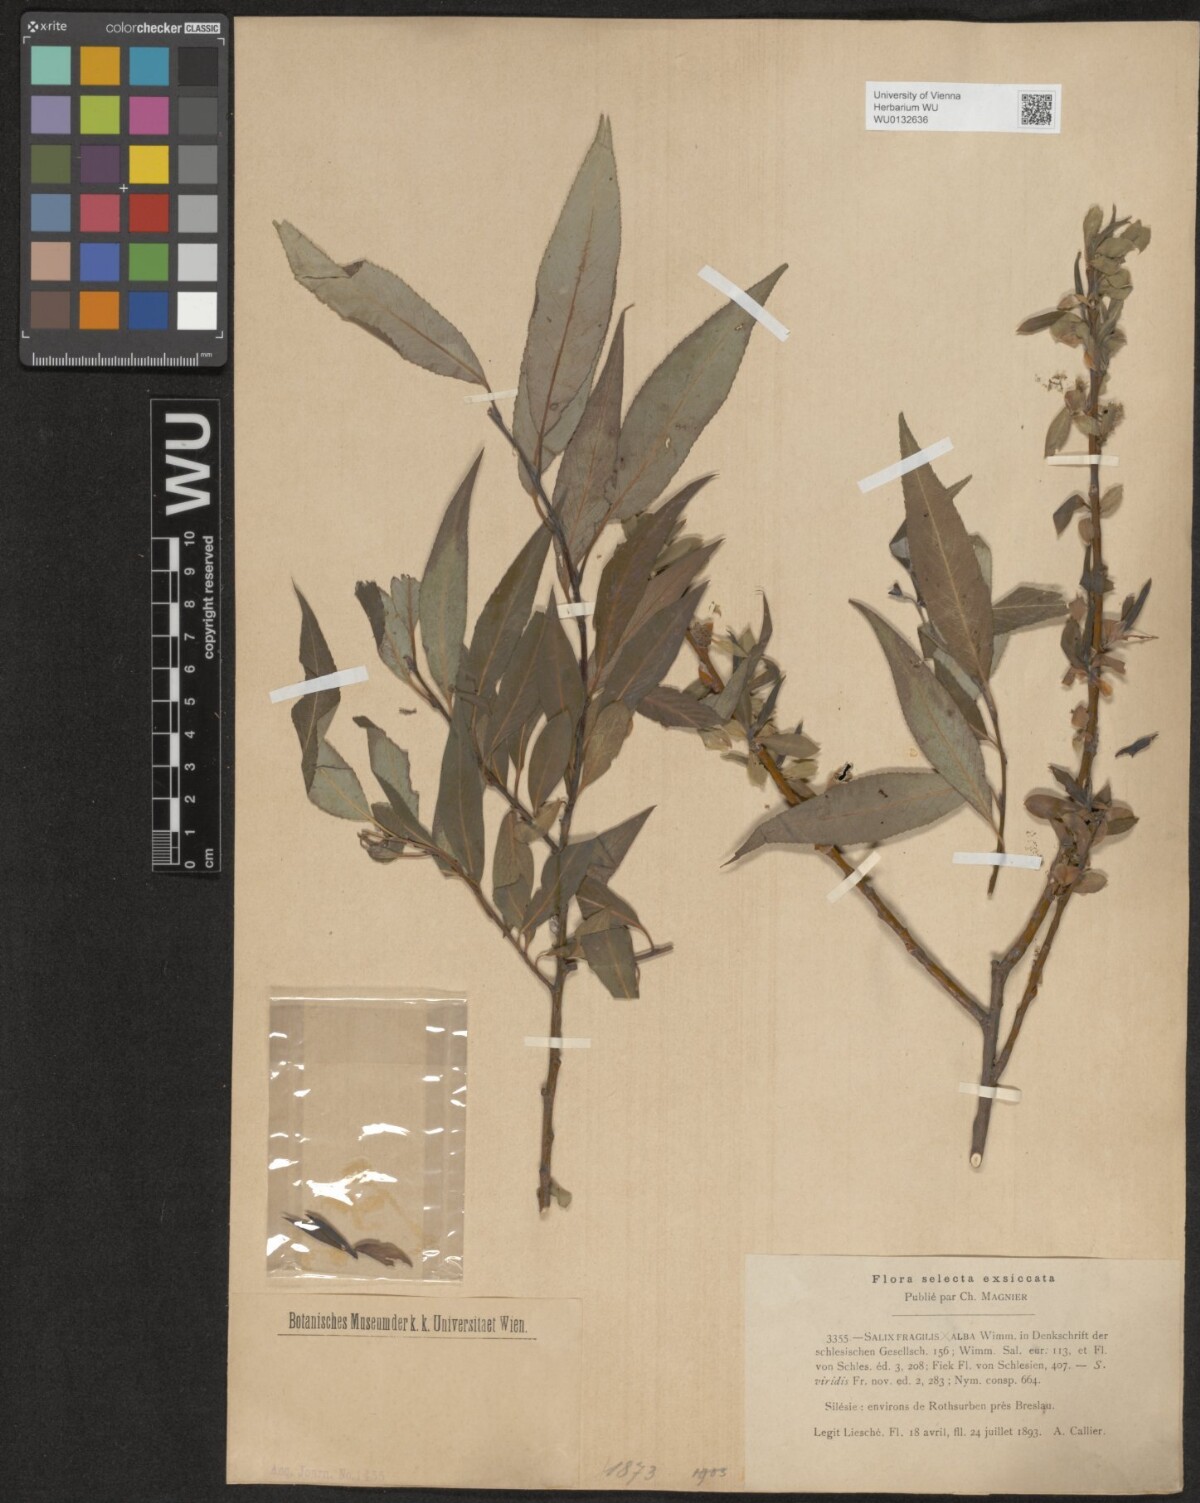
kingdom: Plantae
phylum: Tracheophyta
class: Magnoliopsida
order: Malpighiales
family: Salicaceae
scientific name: Salicaceae
